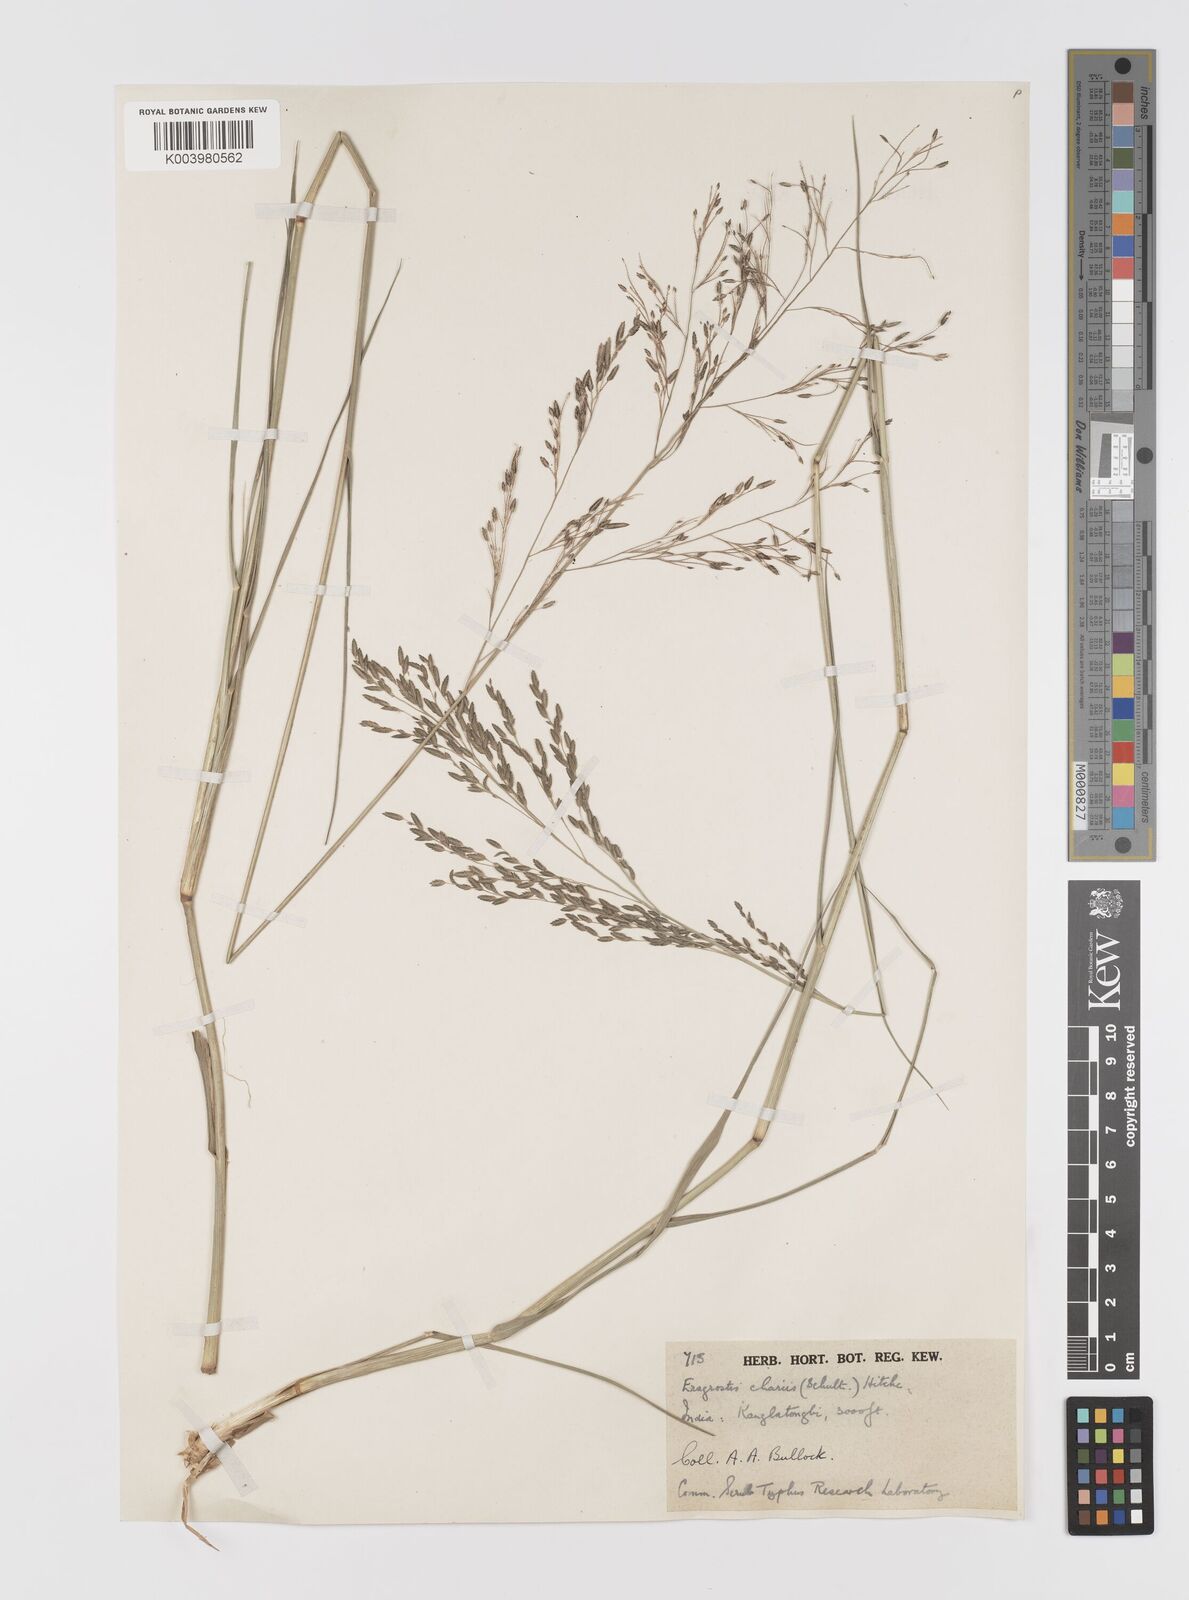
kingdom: Plantae
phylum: Tracheophyta
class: Liliopsida
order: Poales
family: Poaceae
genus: Eragrostis
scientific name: Eragrostis atrovirens
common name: Thalia lovegrass
